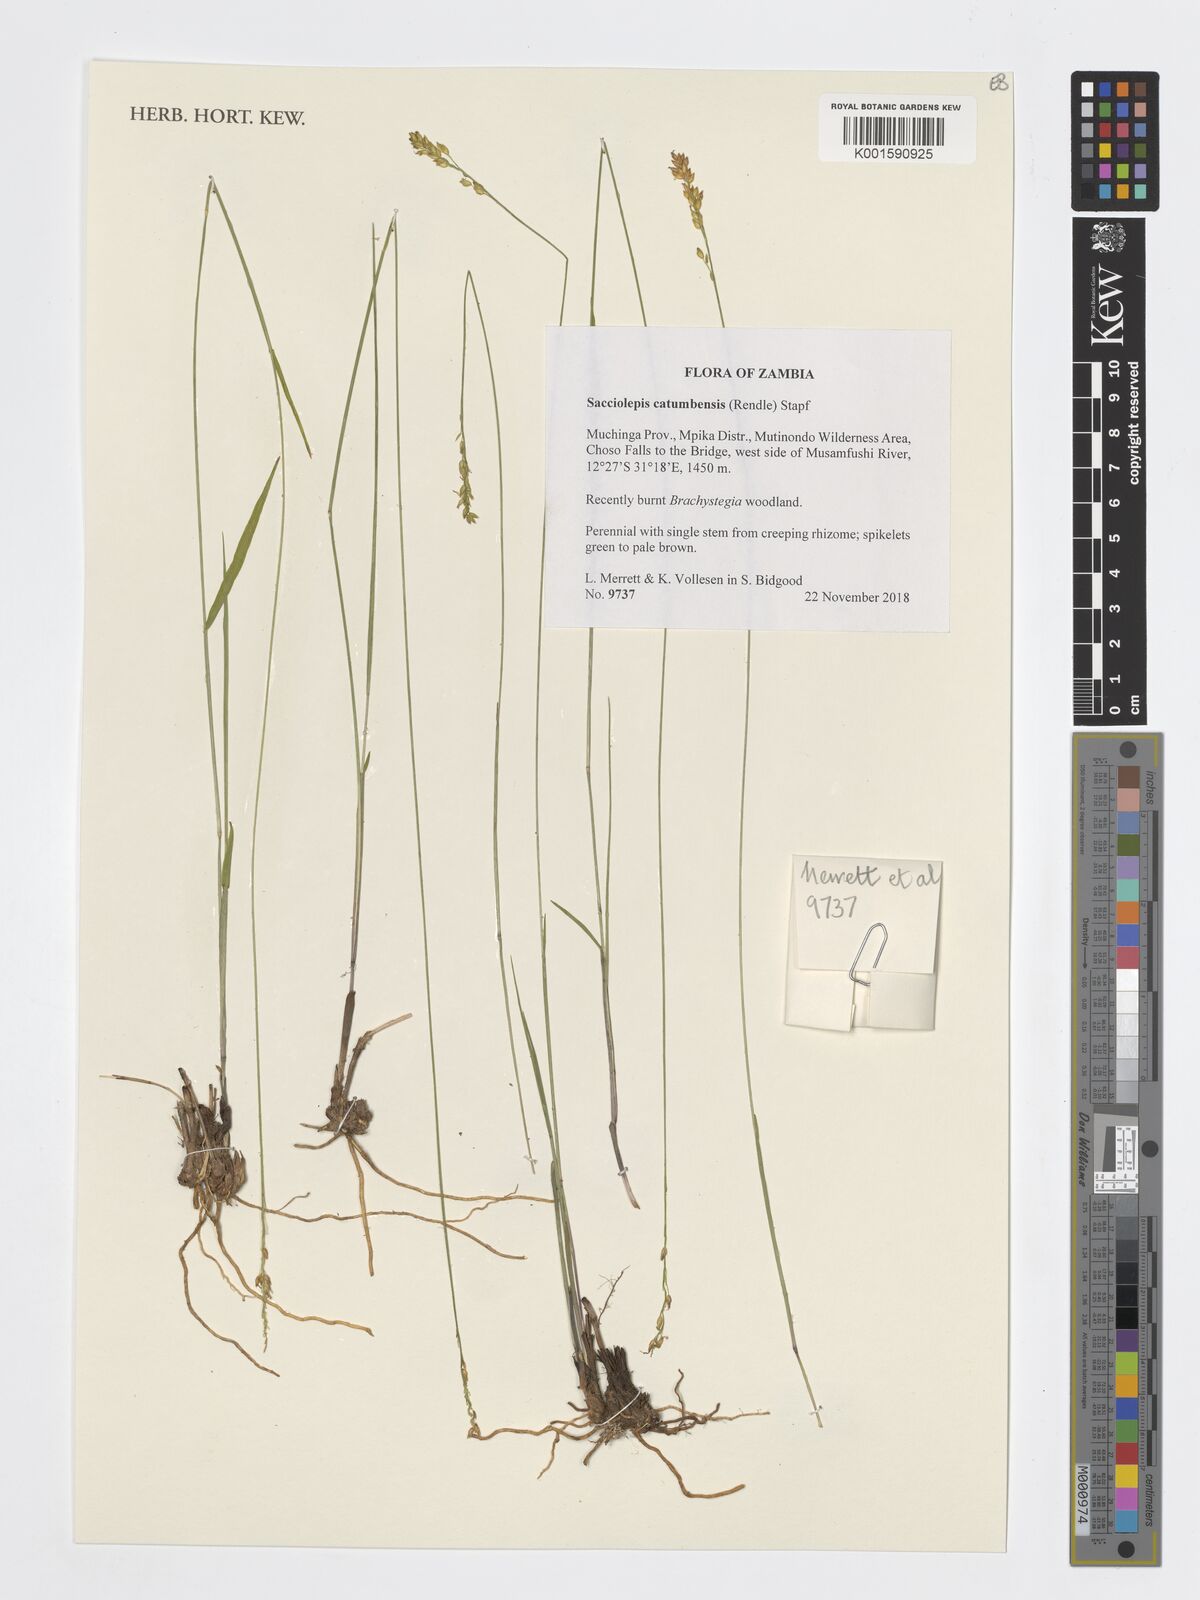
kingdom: Plantae
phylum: Tracheophyta
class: Liliopsida
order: Poales
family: Poaceae
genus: Sacciolepis
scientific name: Sacciolepis catumbensis
